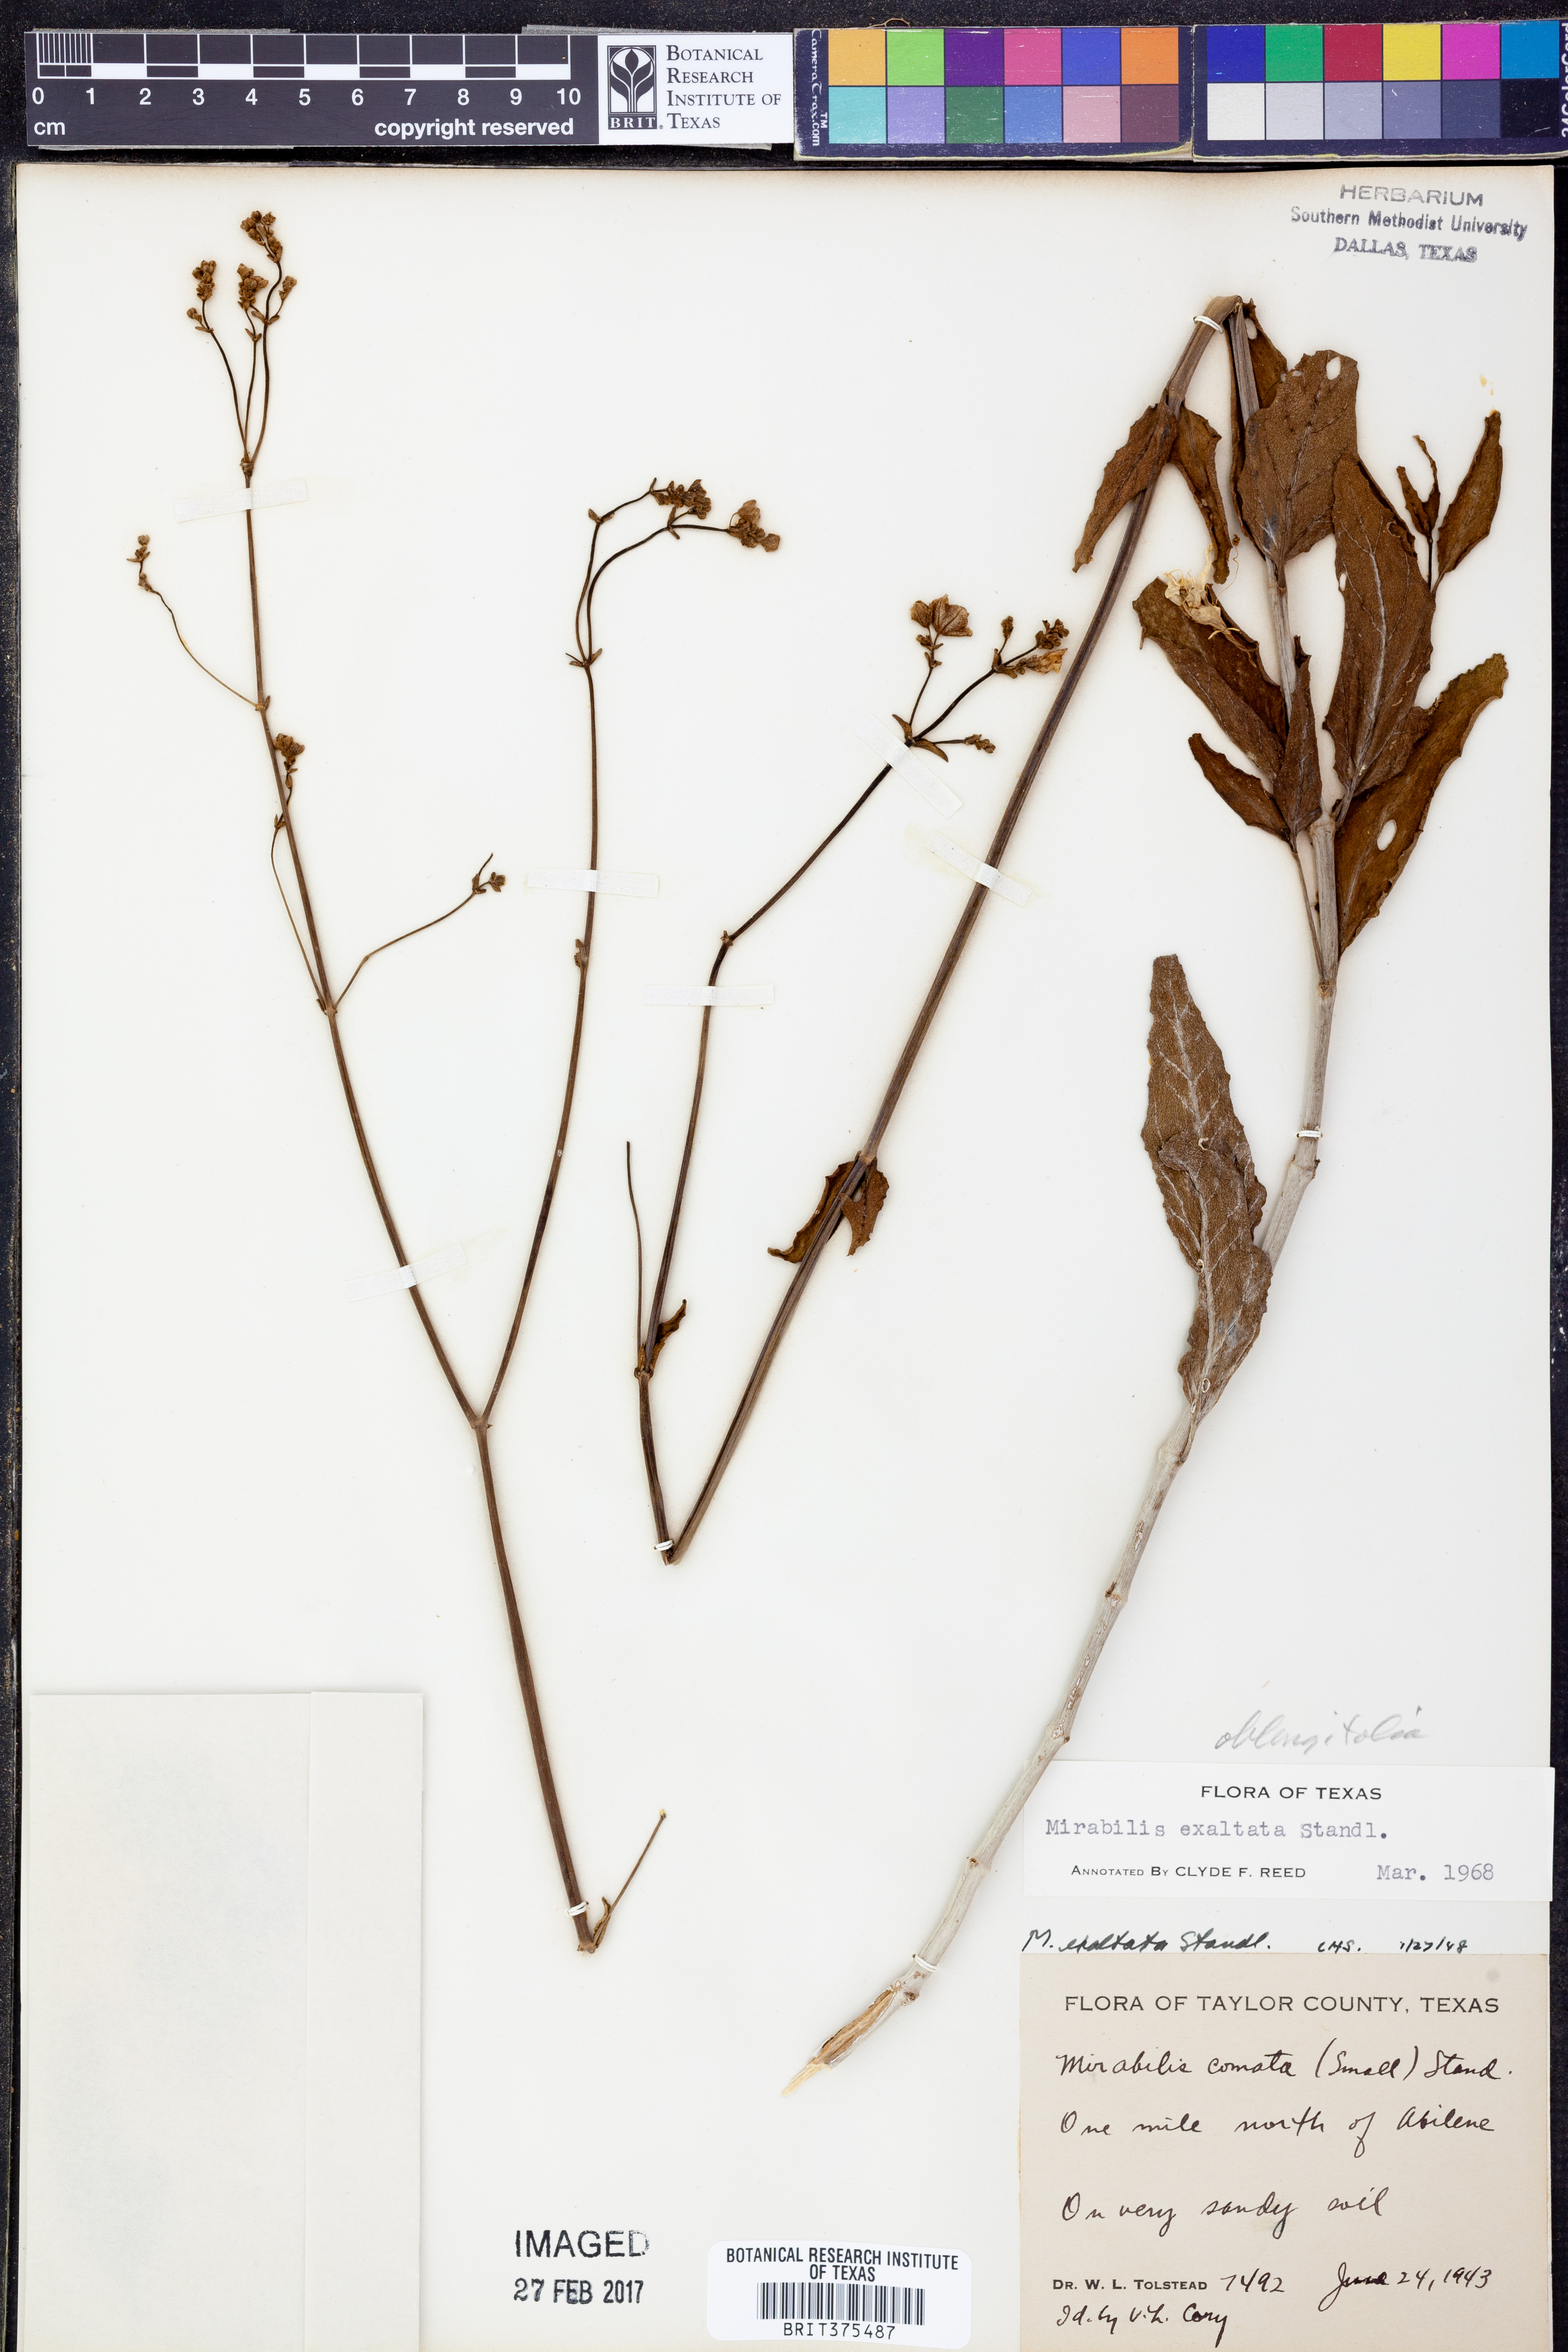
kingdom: Plantae
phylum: Tracheophyta
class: Magnoliopsida
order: Caryophyllales
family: Nyctaginaceae
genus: Mirabilis
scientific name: Mirabilis glabra
